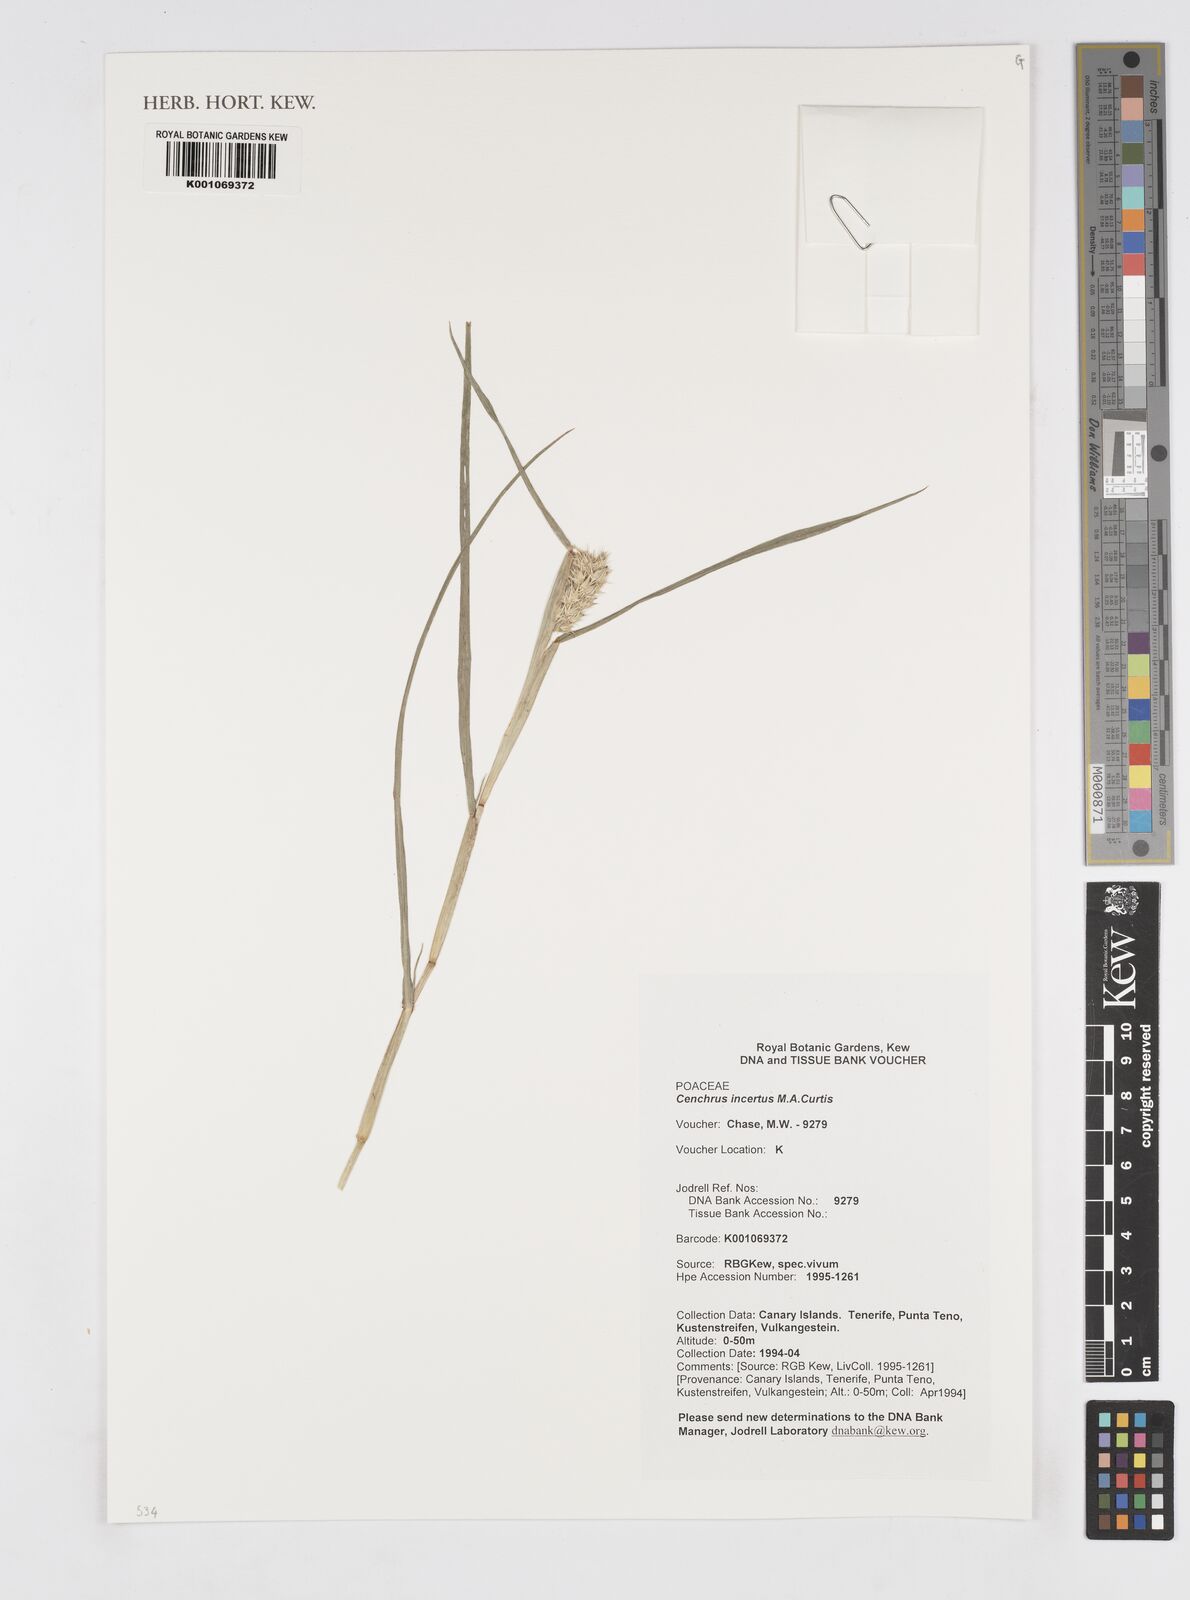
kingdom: Plantae
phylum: Tracheophyta
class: Liliopsida
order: Poales
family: Poaceae
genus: Cenchrus
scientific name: Cenchrus spinifex
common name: Coast sandbur
